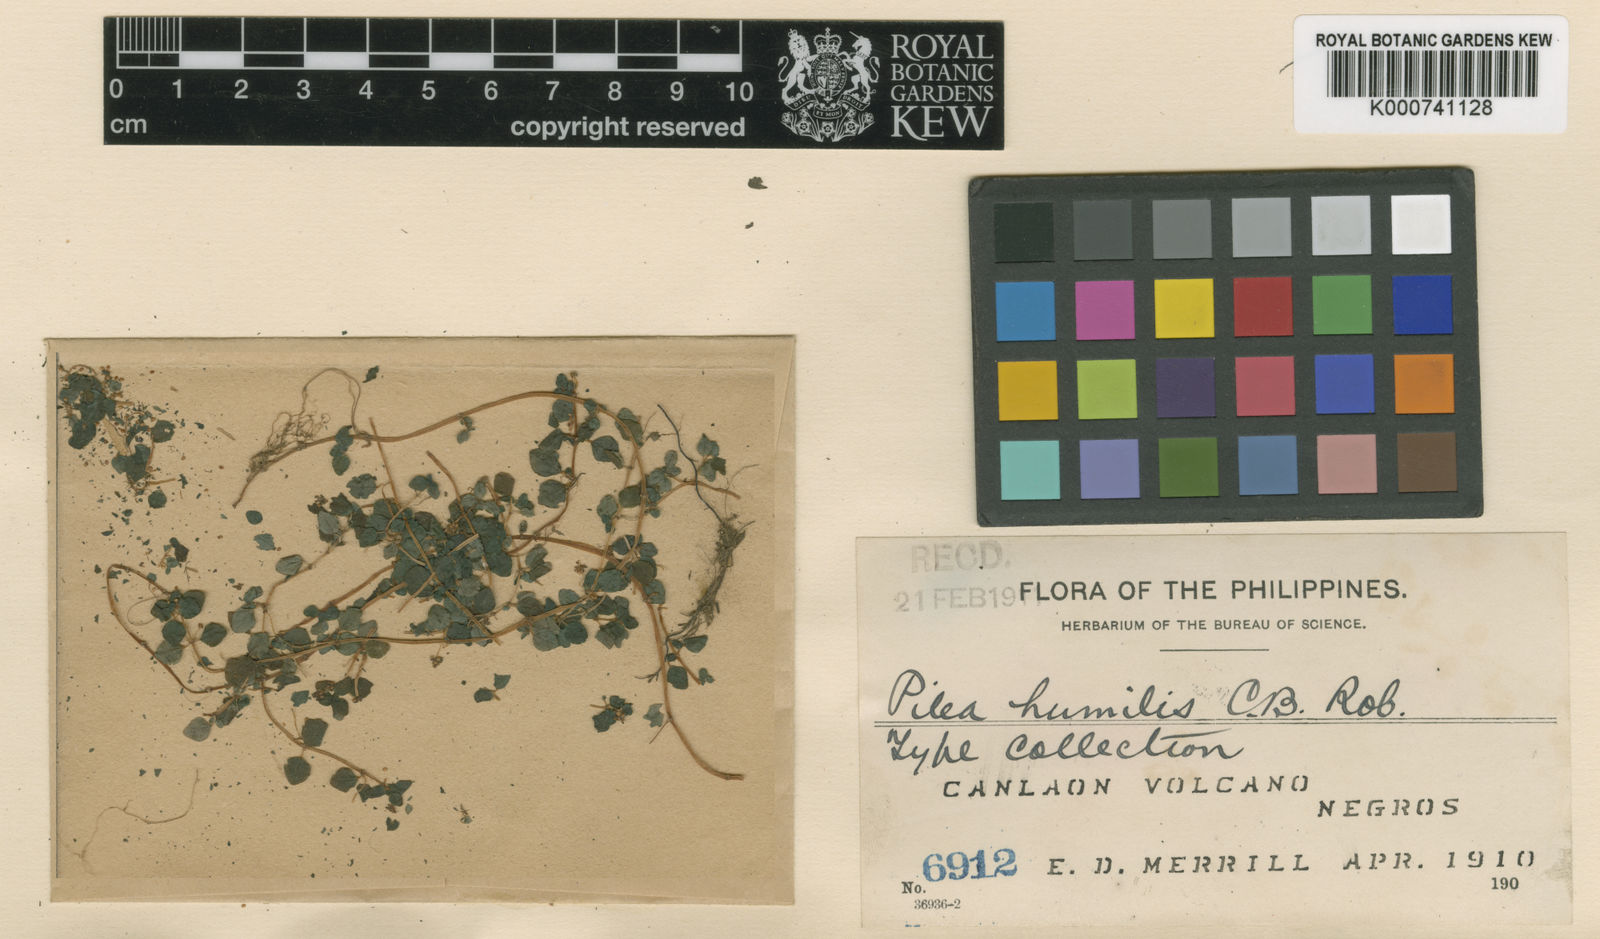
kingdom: Plantae
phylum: Tracheophyta
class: Magnoliopsida
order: Rosales
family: Urticaceae
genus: Pilea
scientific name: Pilea humilis
